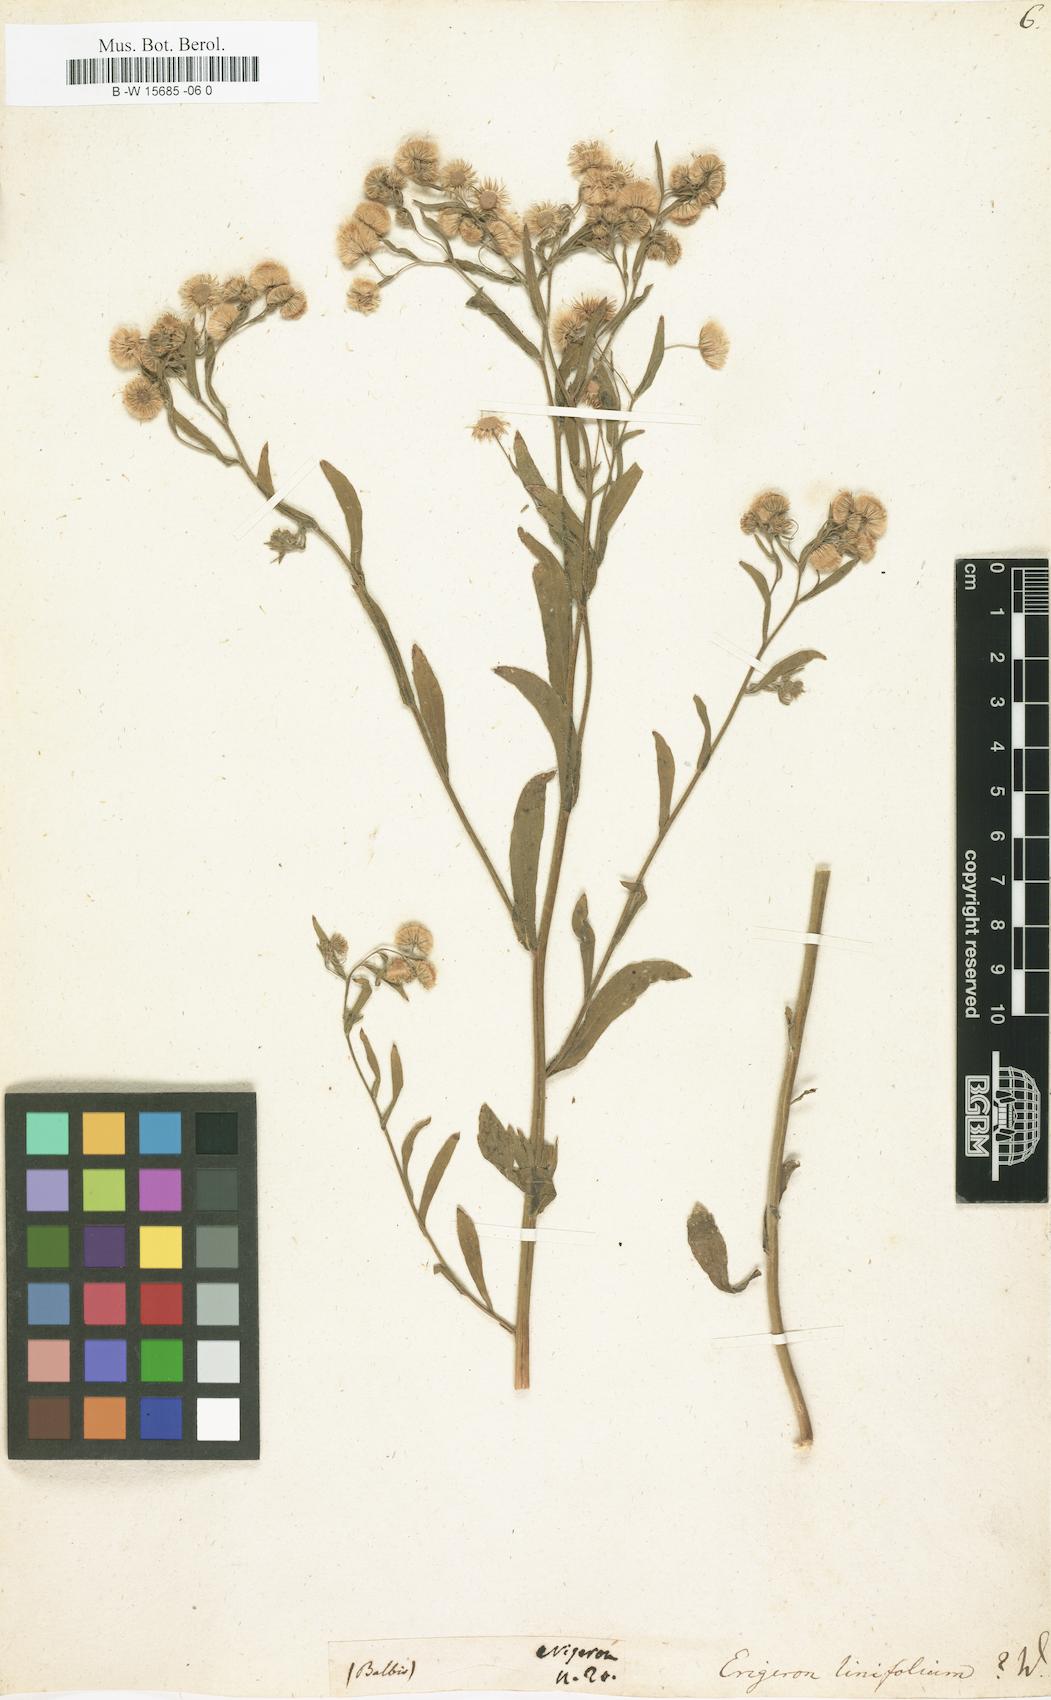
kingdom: Plantae
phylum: Tracheophyta
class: Magnoliopsida
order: Asterales
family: Asteraceae
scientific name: Asteraceae
